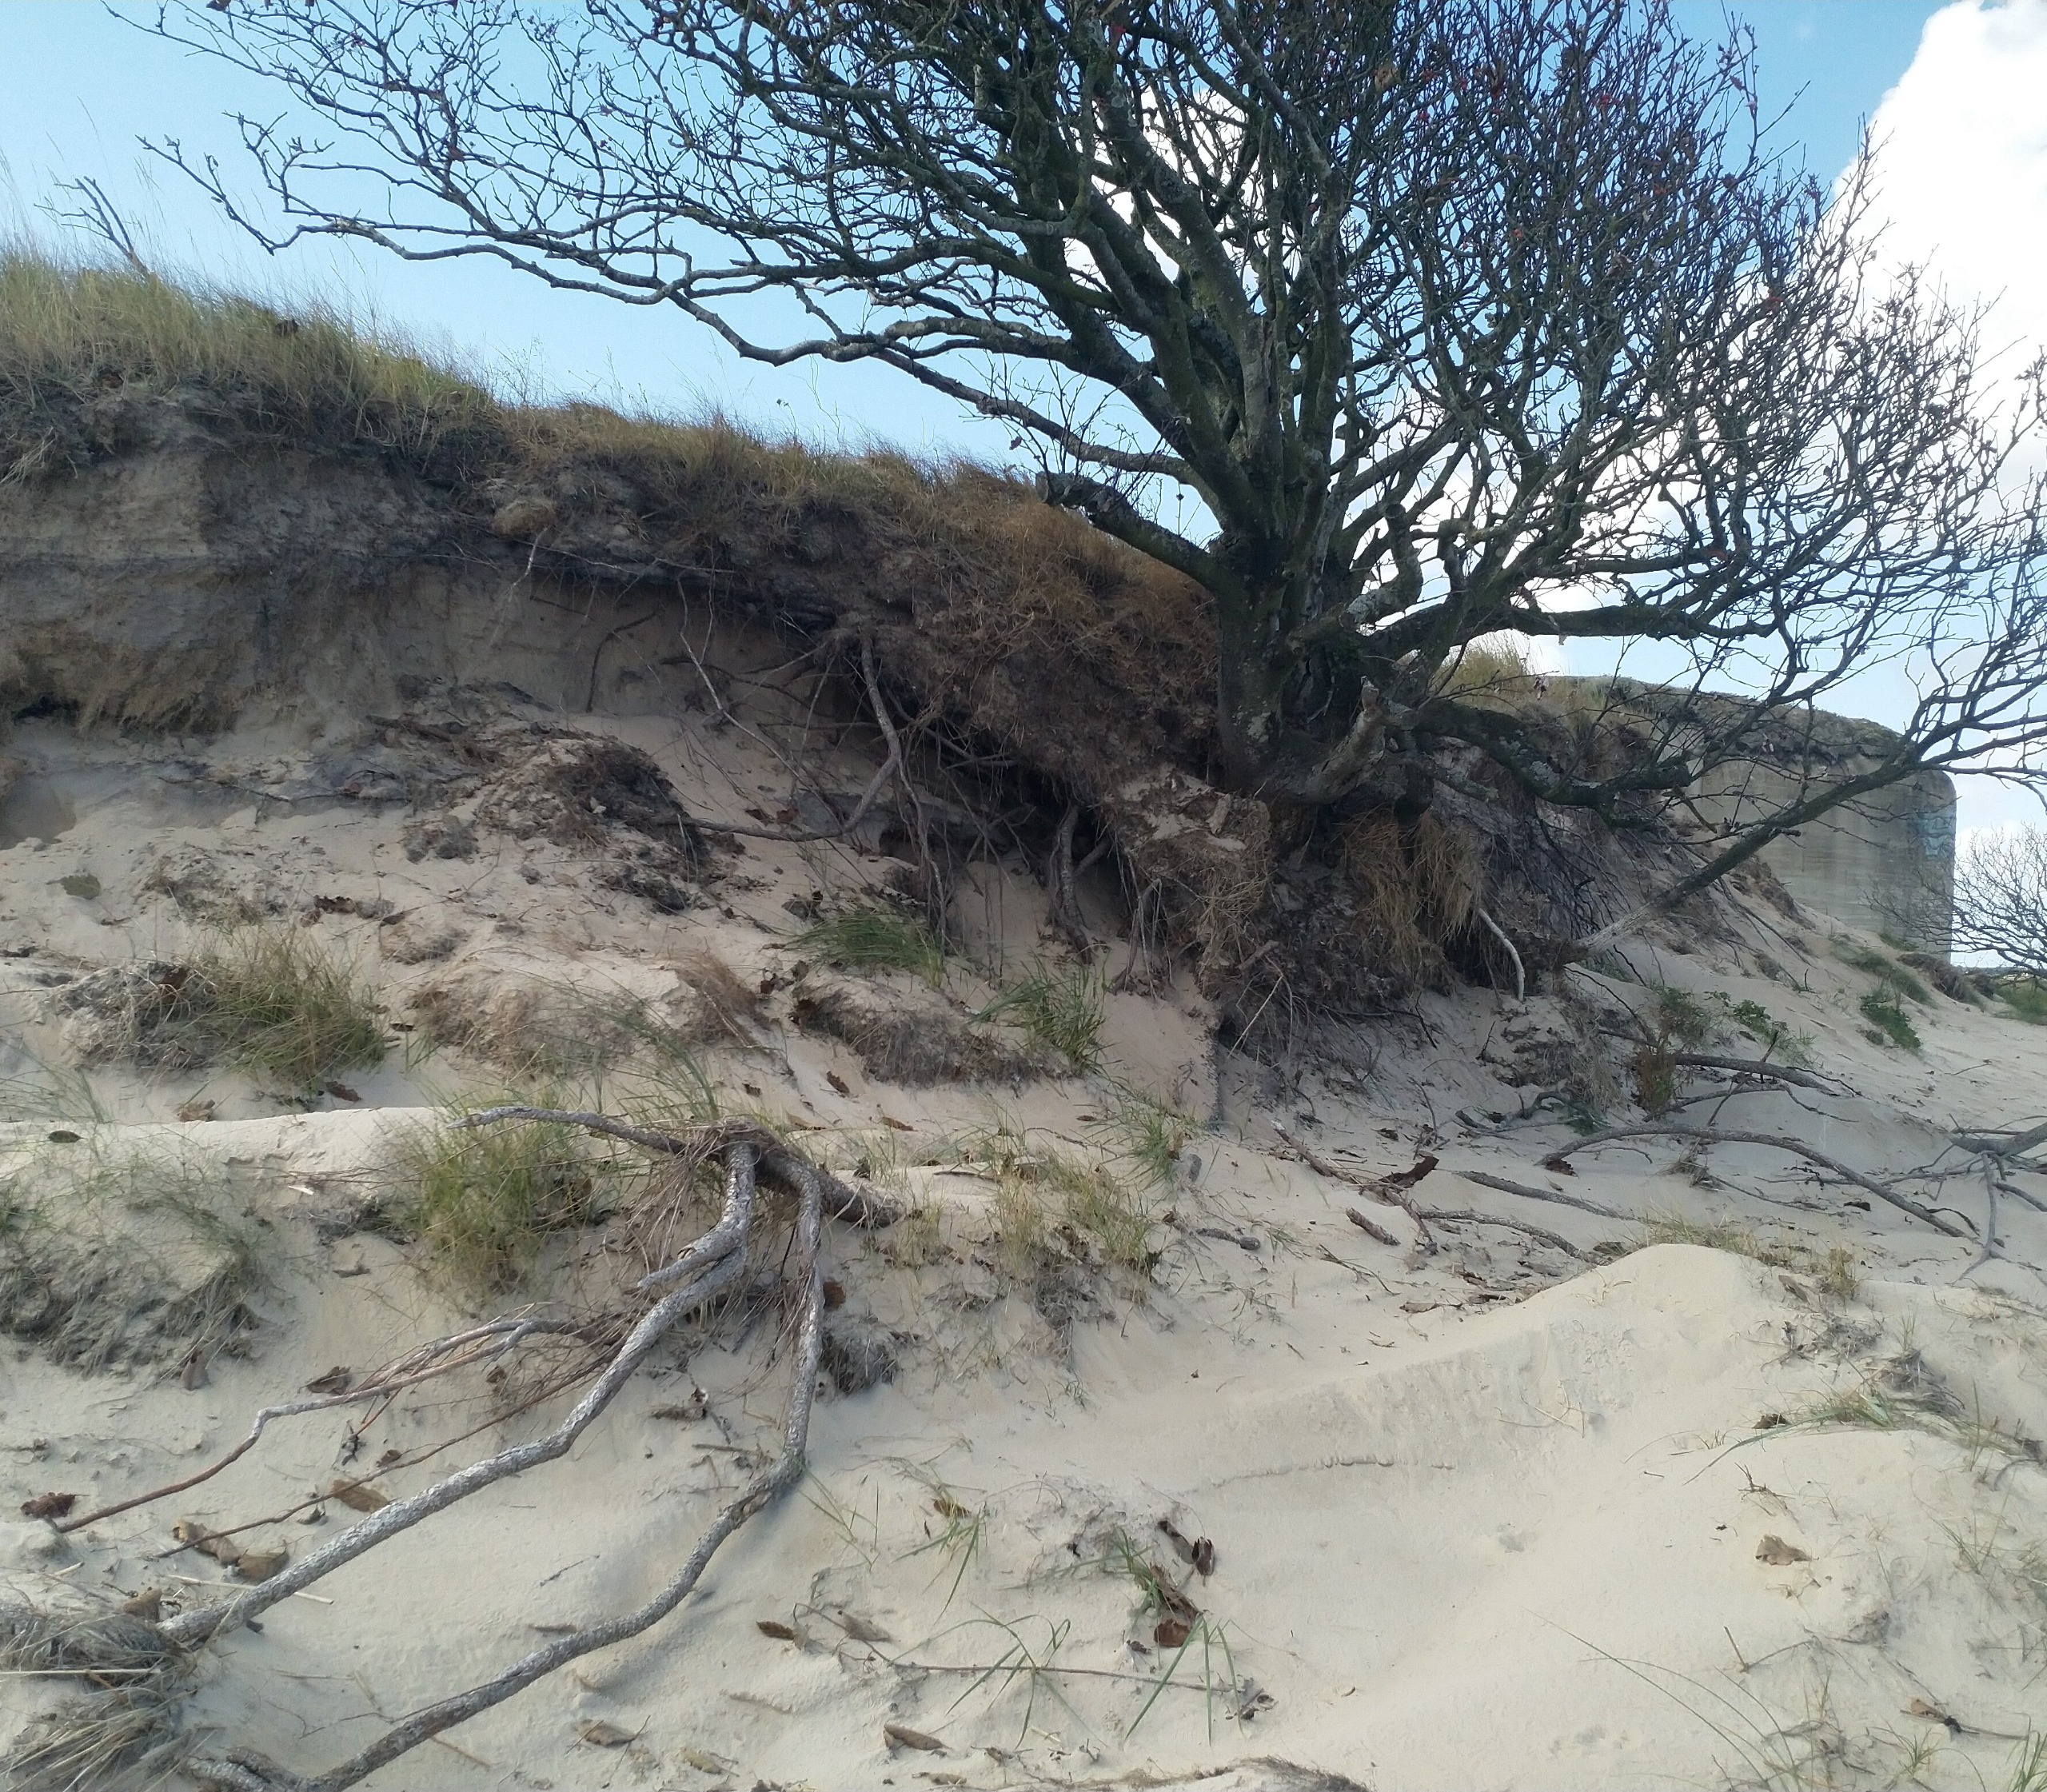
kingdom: Plantae
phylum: Tracheophyta
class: Magnoliopsida
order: Rosales
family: Rosaceae
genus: Scandosorbus
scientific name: Scandosorbus intermedia
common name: Selje-røn
